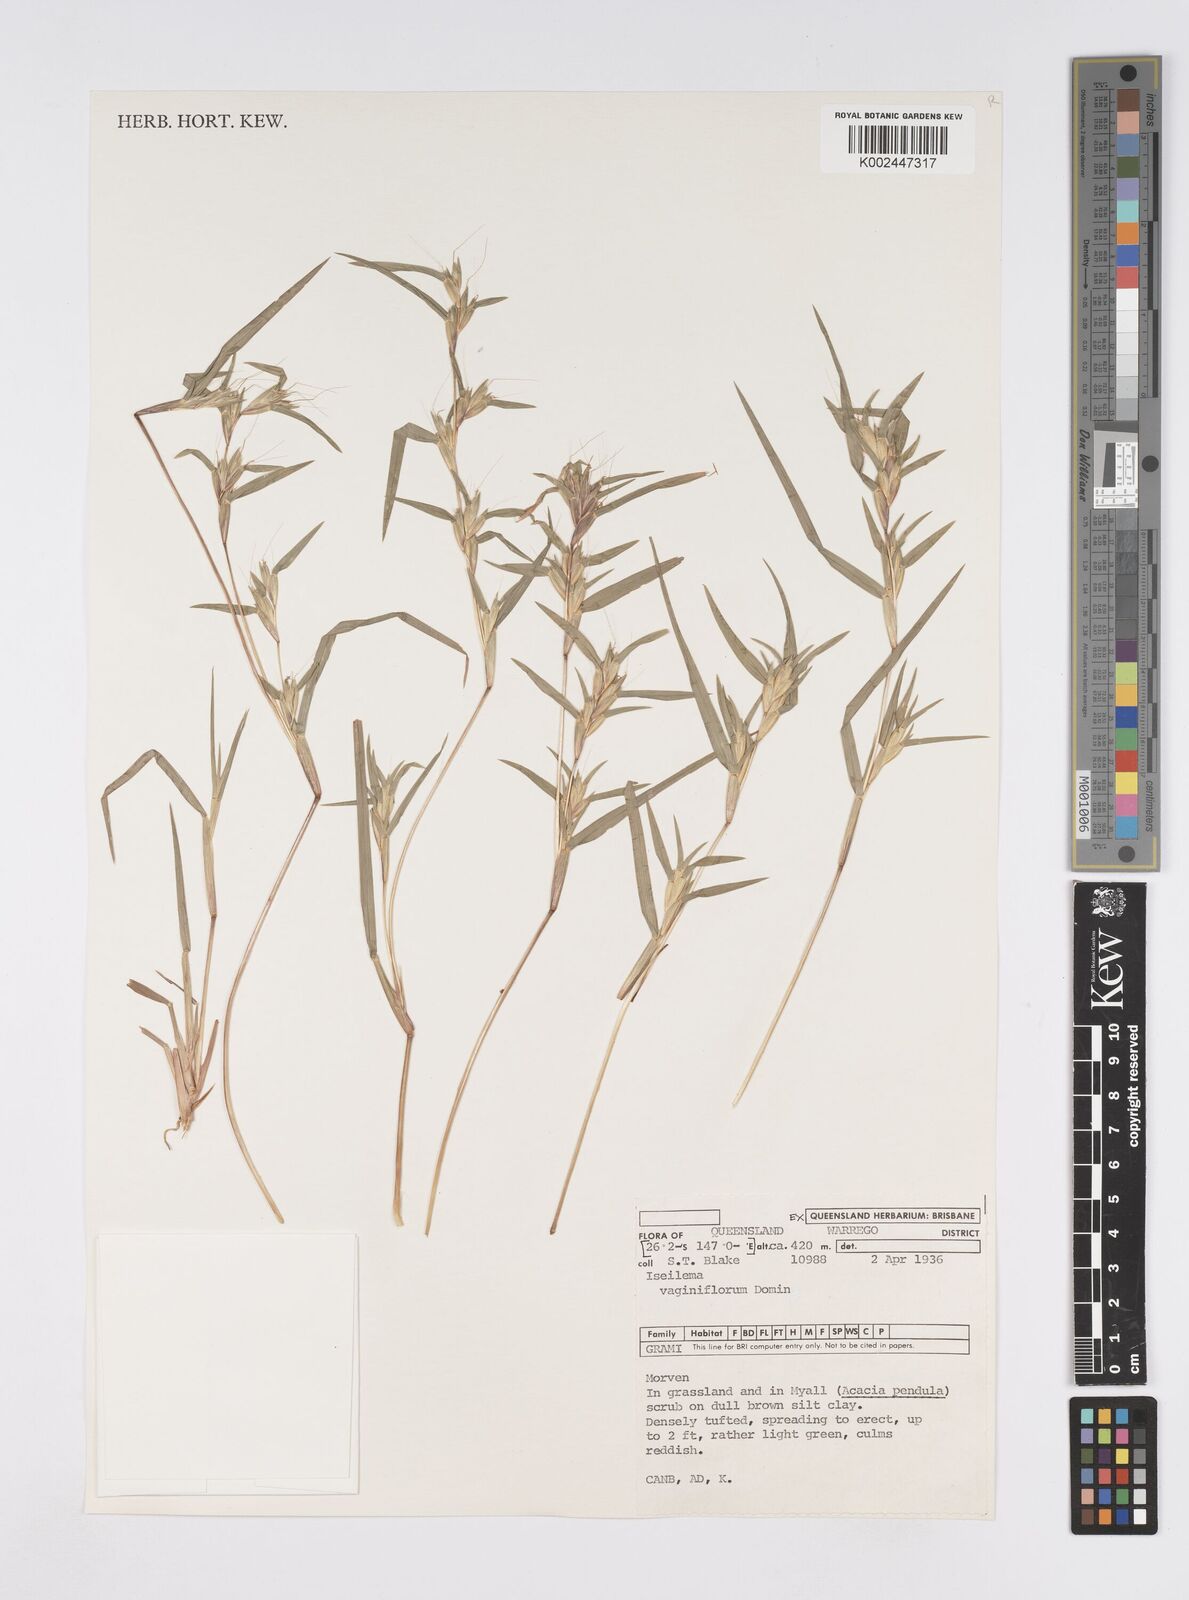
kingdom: Plantae
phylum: Tracheophyta
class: Liliopsida
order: Poales
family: Poaceae
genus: Iseilema
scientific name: Iseilema vaginiflorum
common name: Red flinders grass
